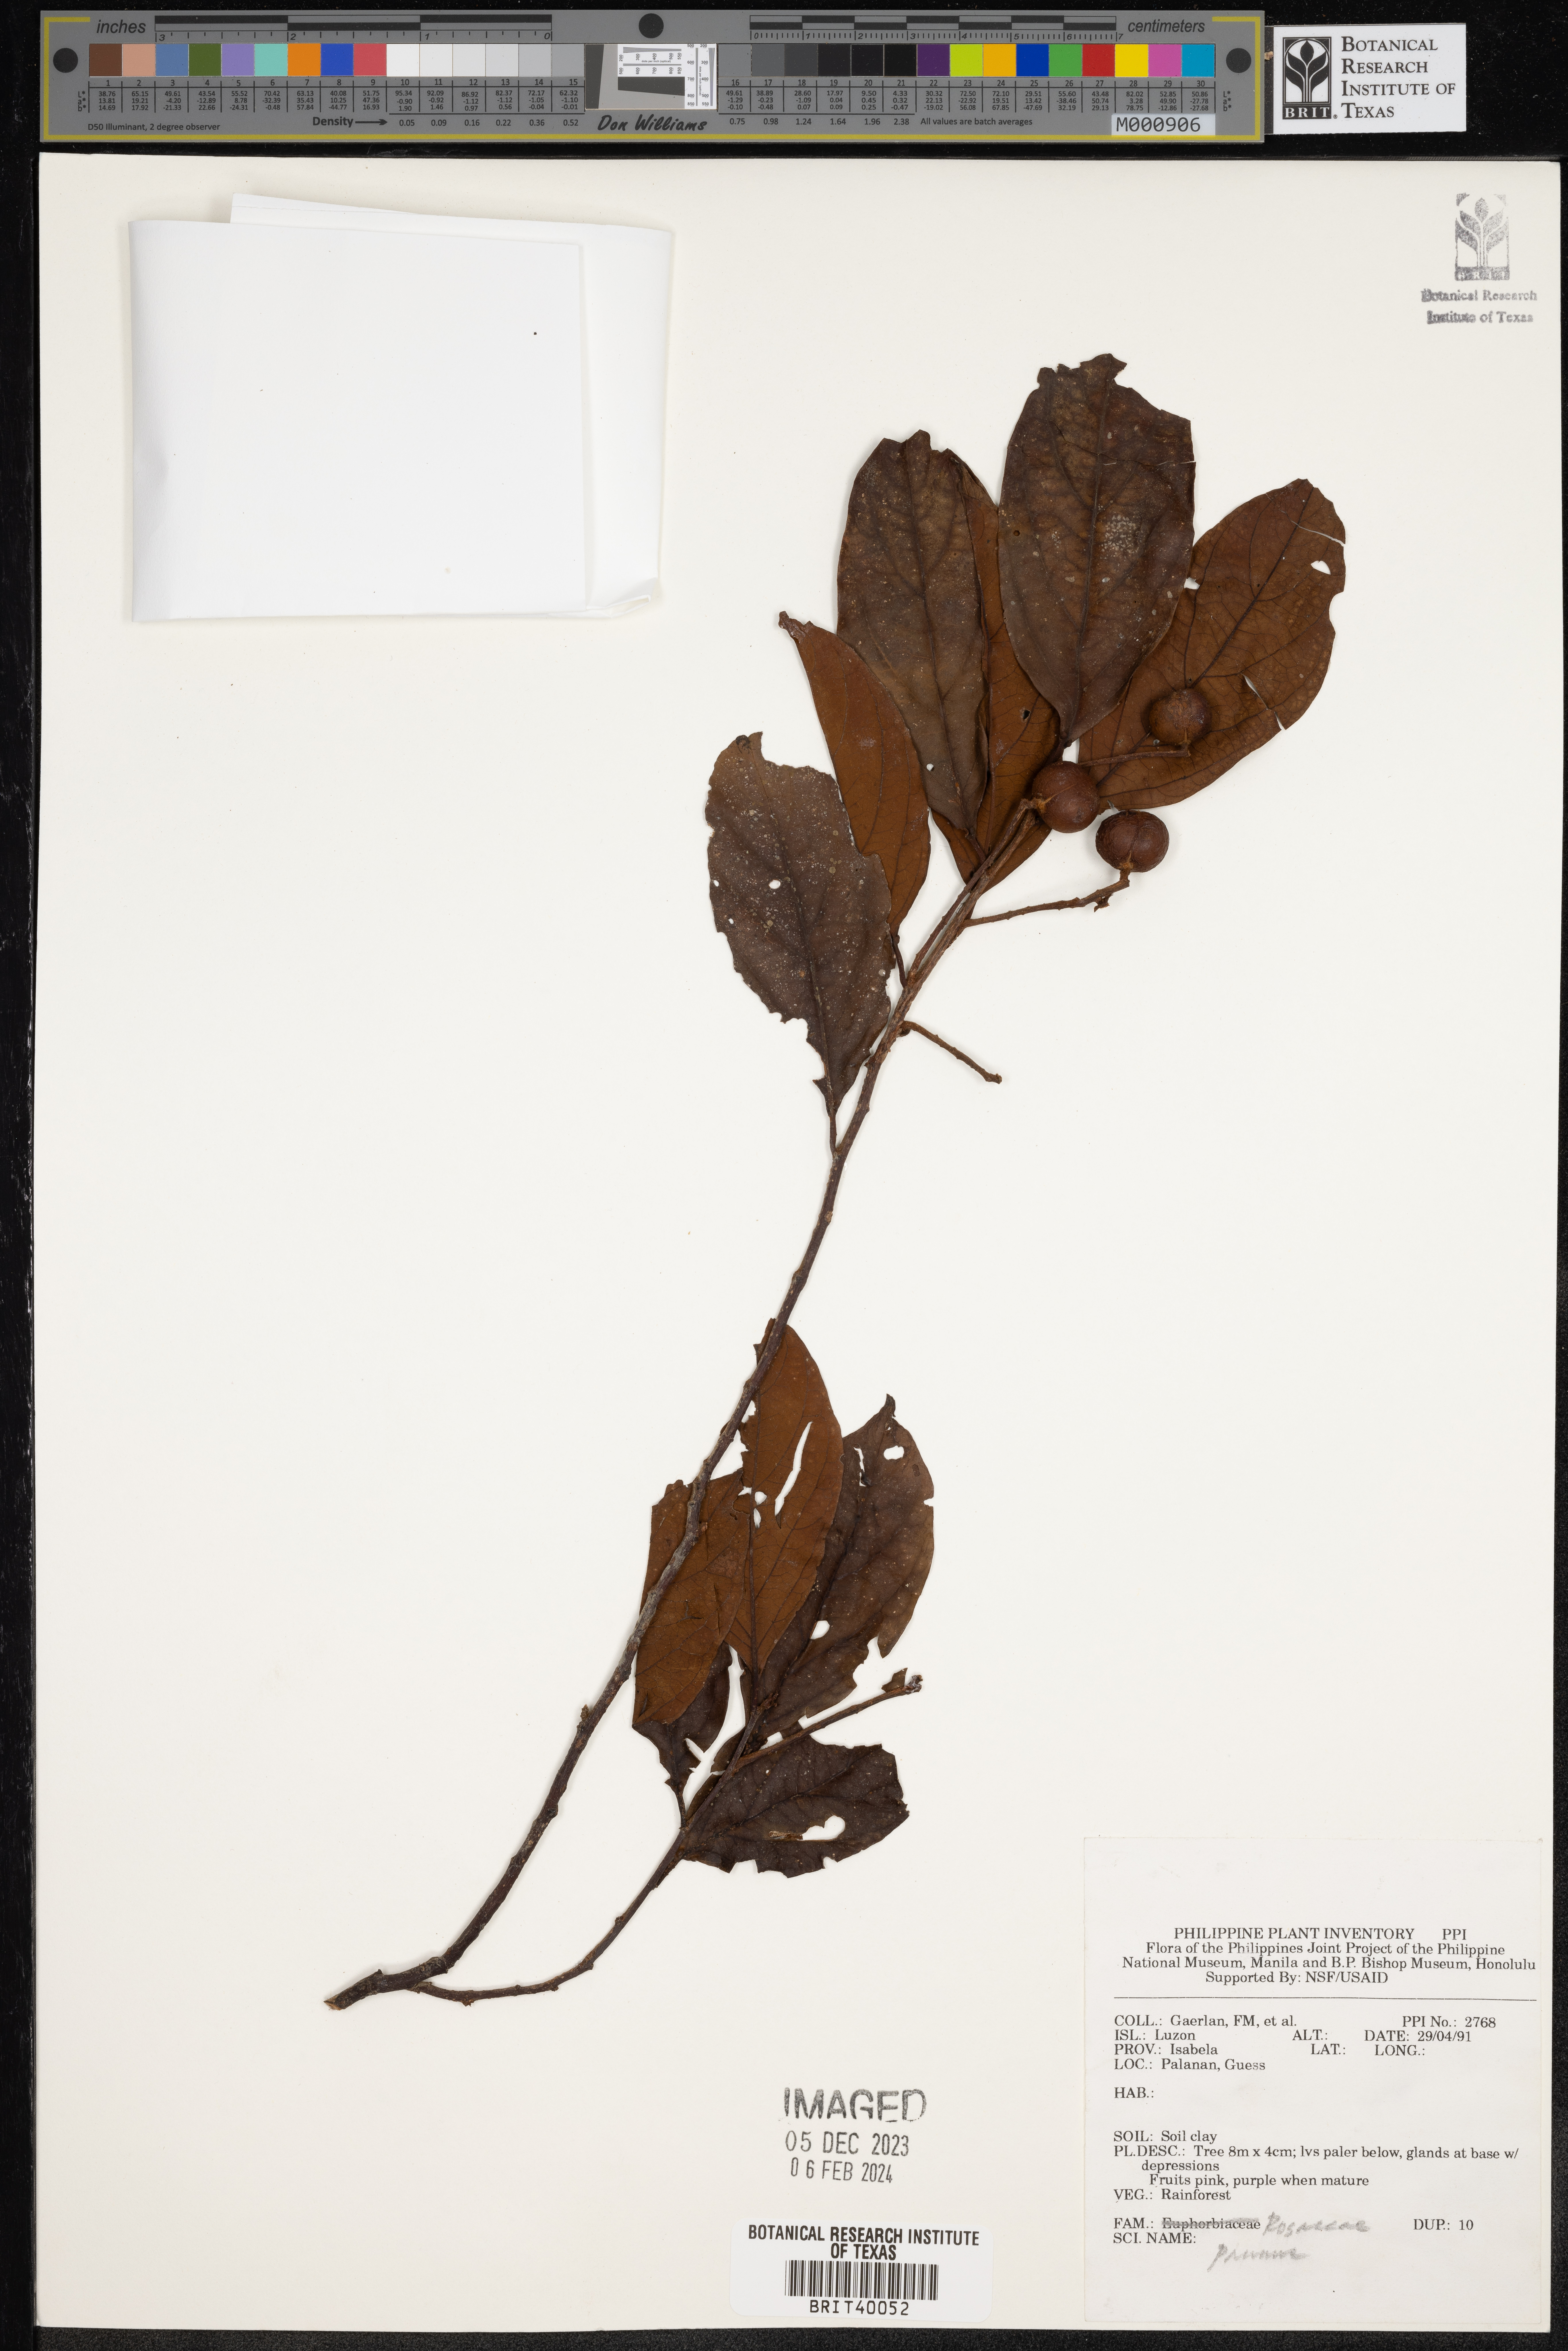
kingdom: Plantae
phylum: Tracheophyta
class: Magnoliopsida
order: Rosales
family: Rosaceae
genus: Prunus
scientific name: Prunus
